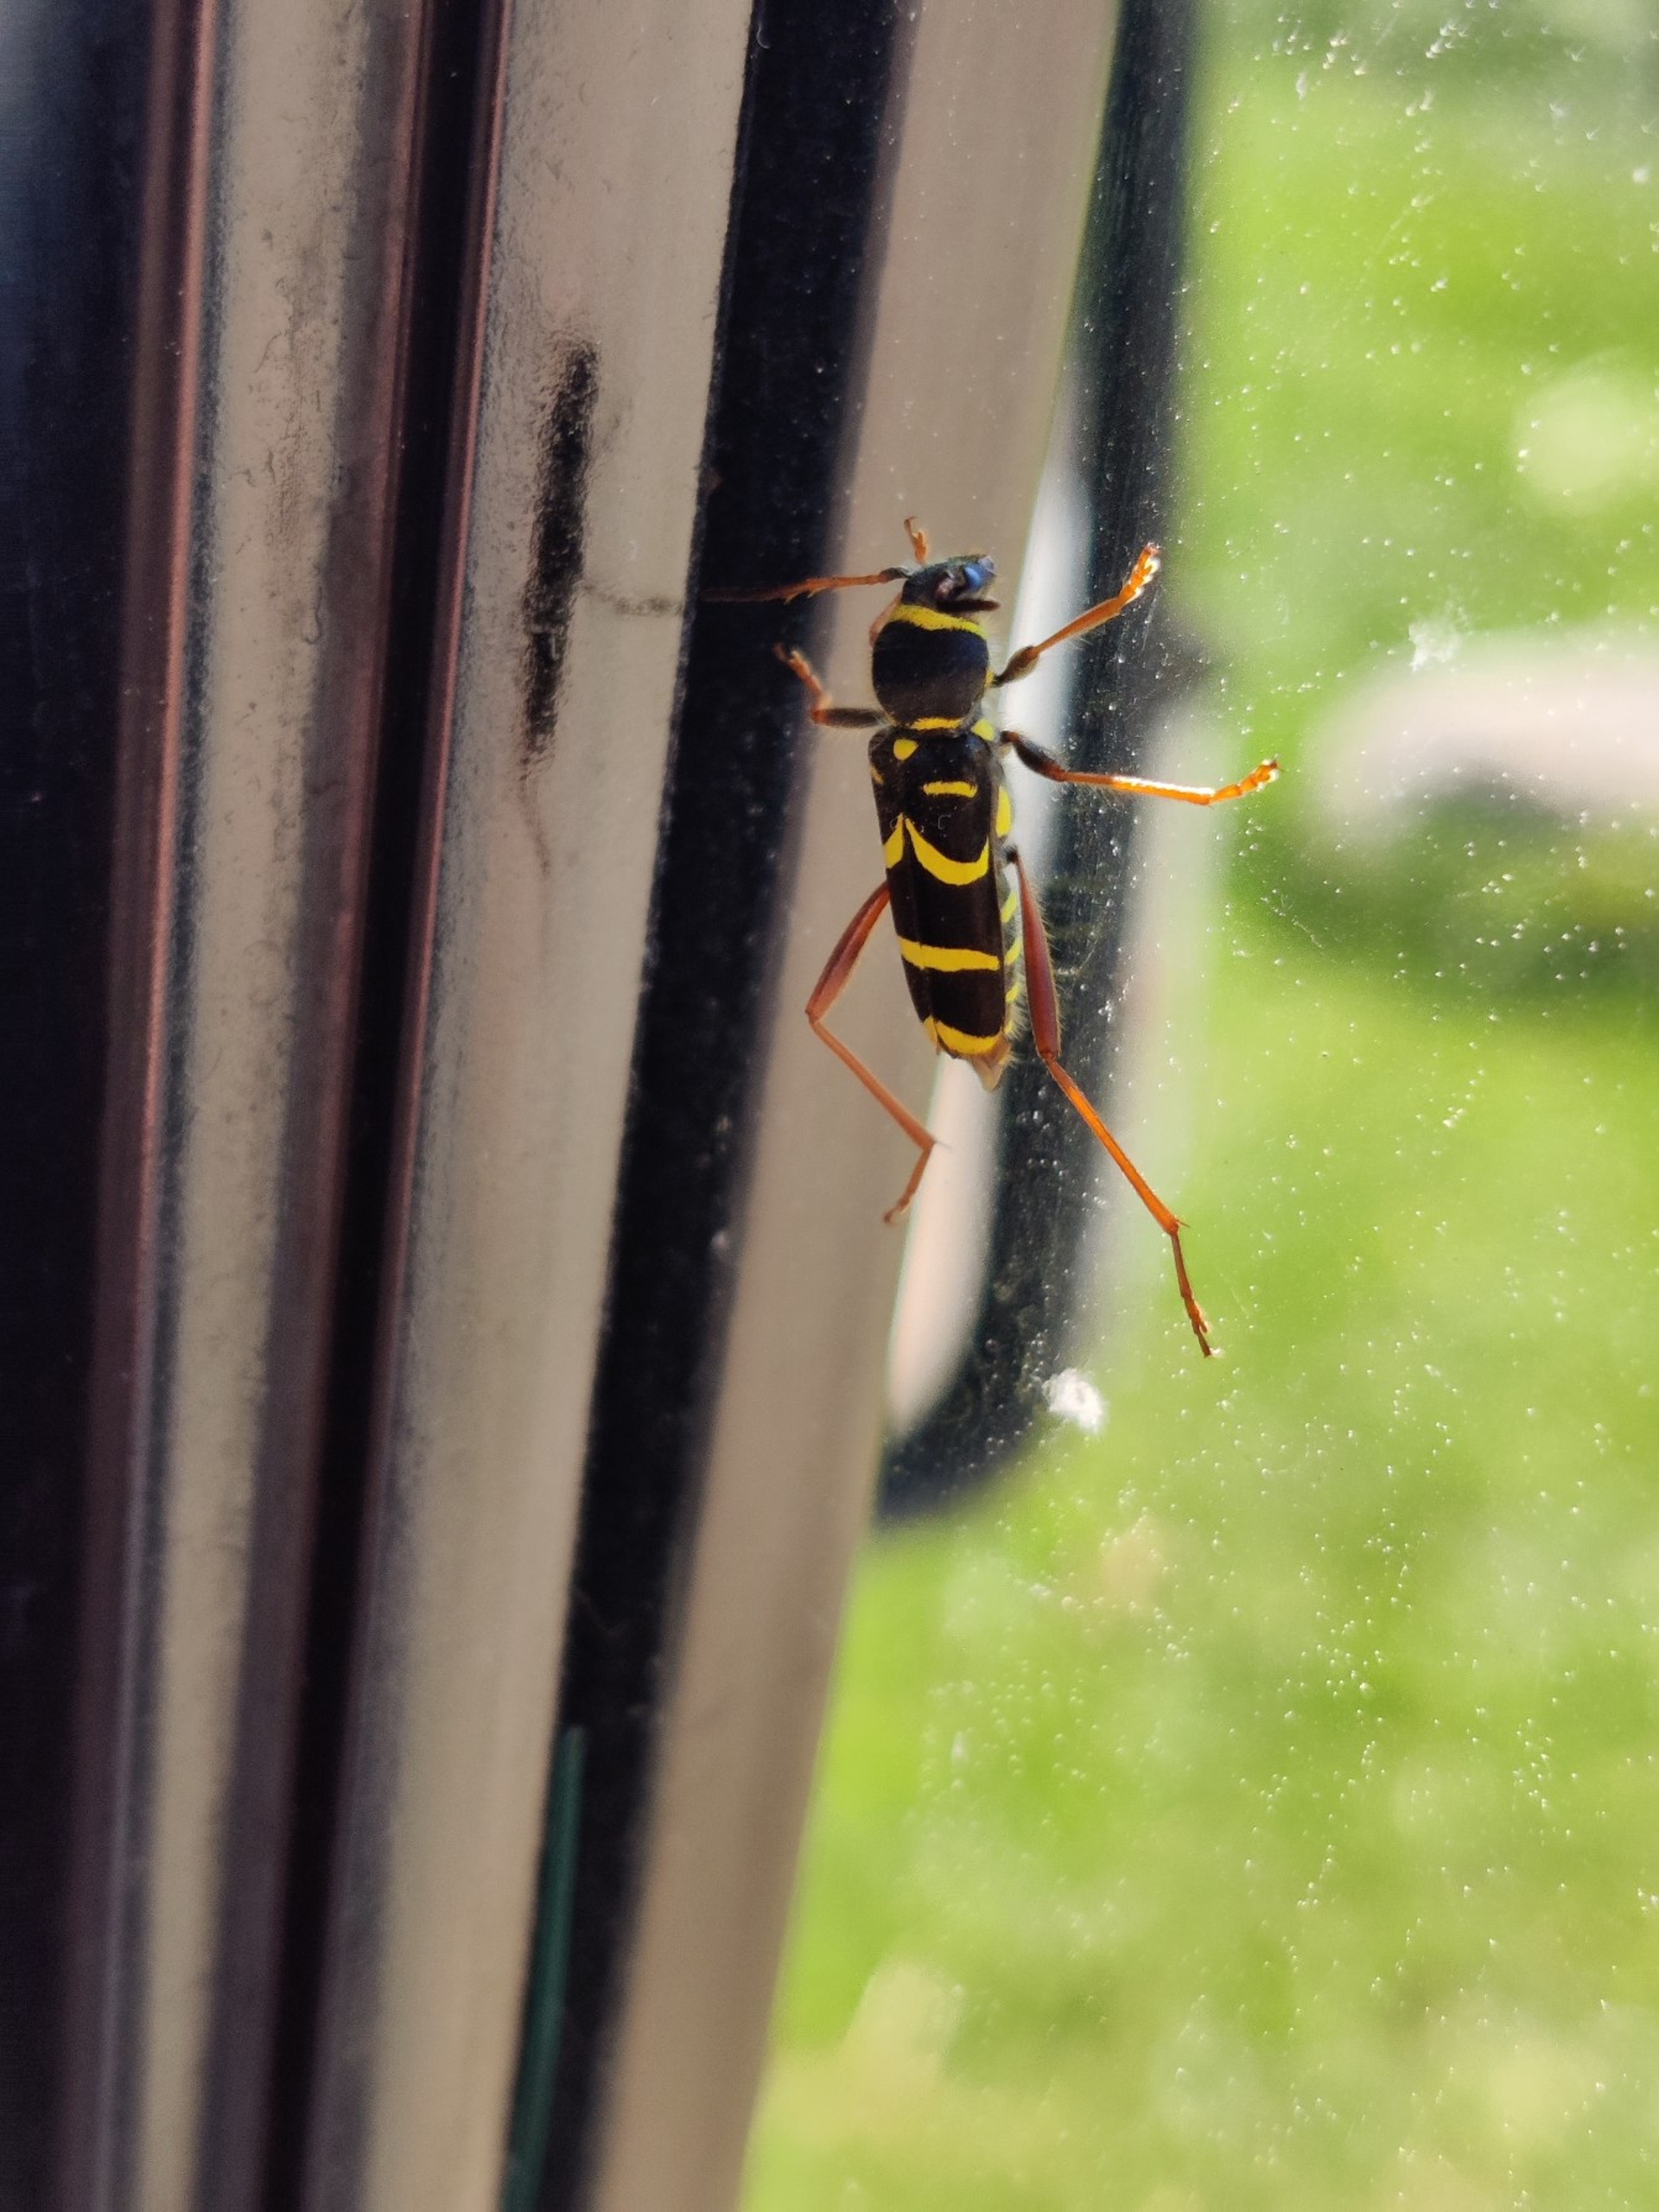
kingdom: Animalia
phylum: Arthropoda
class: Insecta
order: Coleoptera
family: Cerambycidae
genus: Clytus
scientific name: Clytus arietis
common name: Lille hvepsebuk
